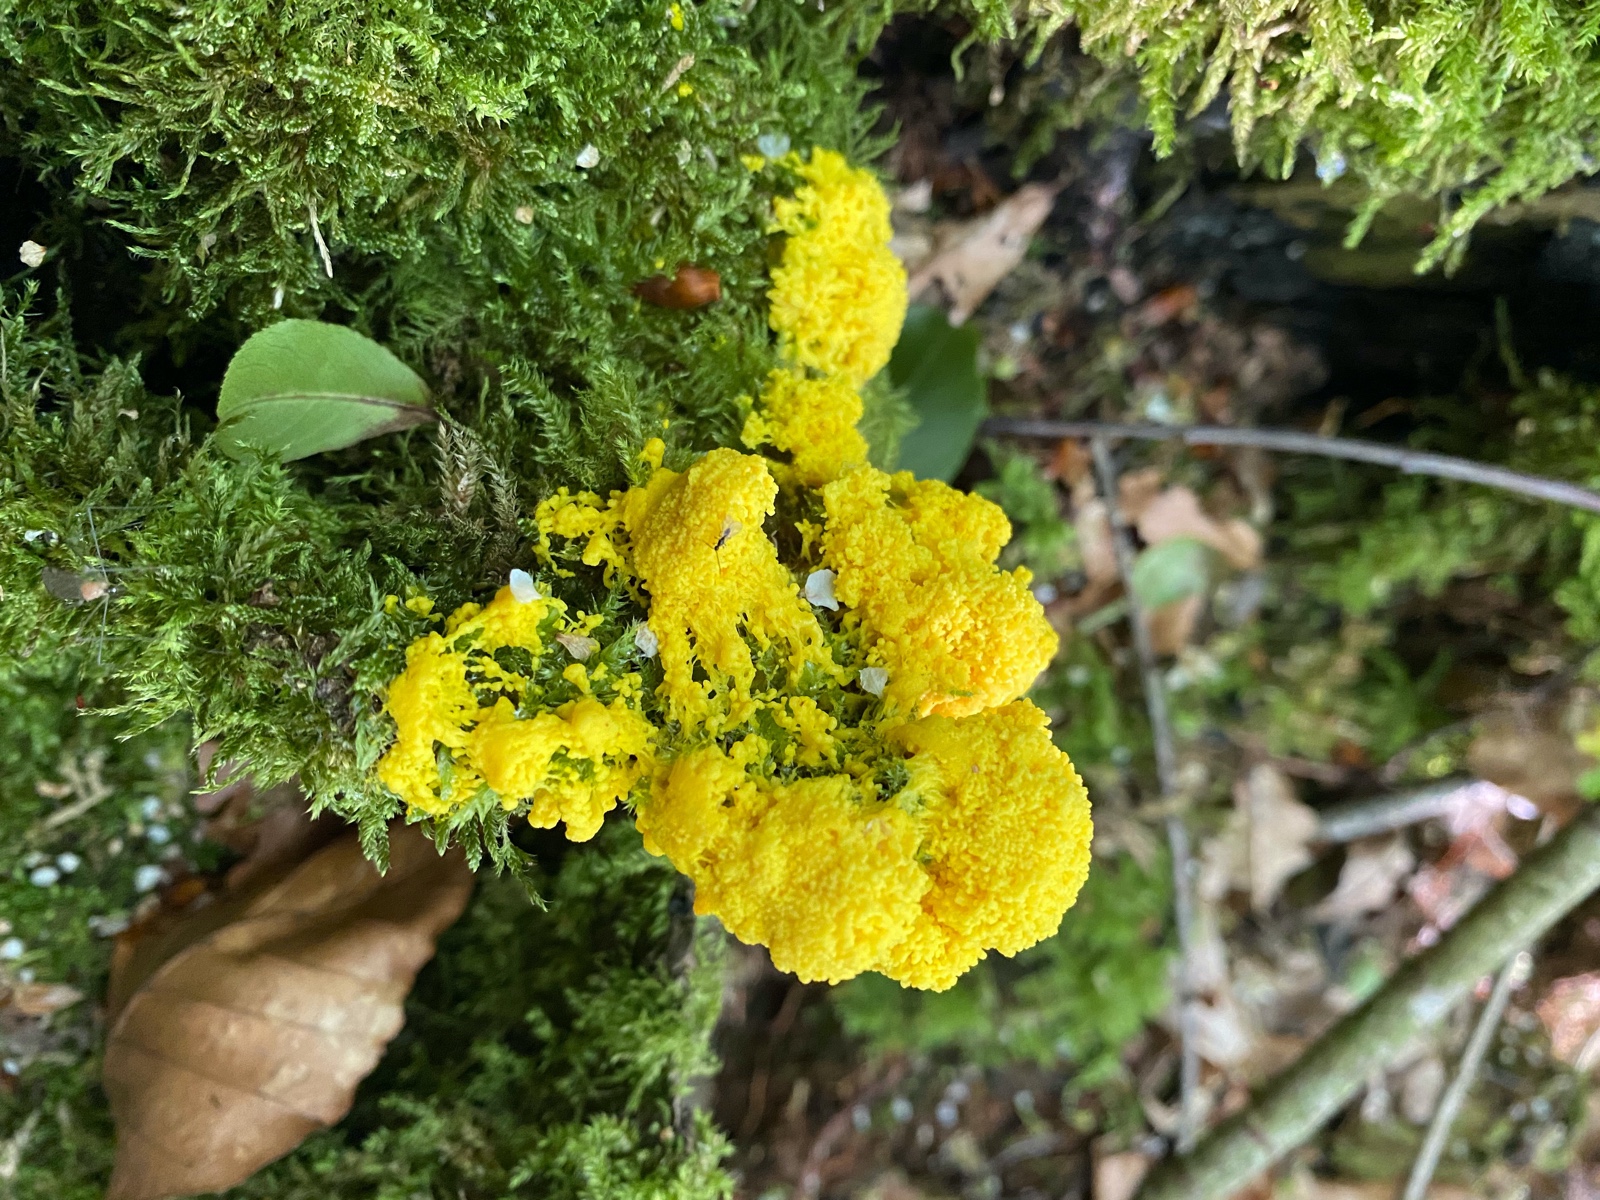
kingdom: Protozoa
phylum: Mycetozoa
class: Myxomycetes
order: Physarales
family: Physaraceae
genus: Fuligo
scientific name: Fuligo septica
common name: gul troldsmør
